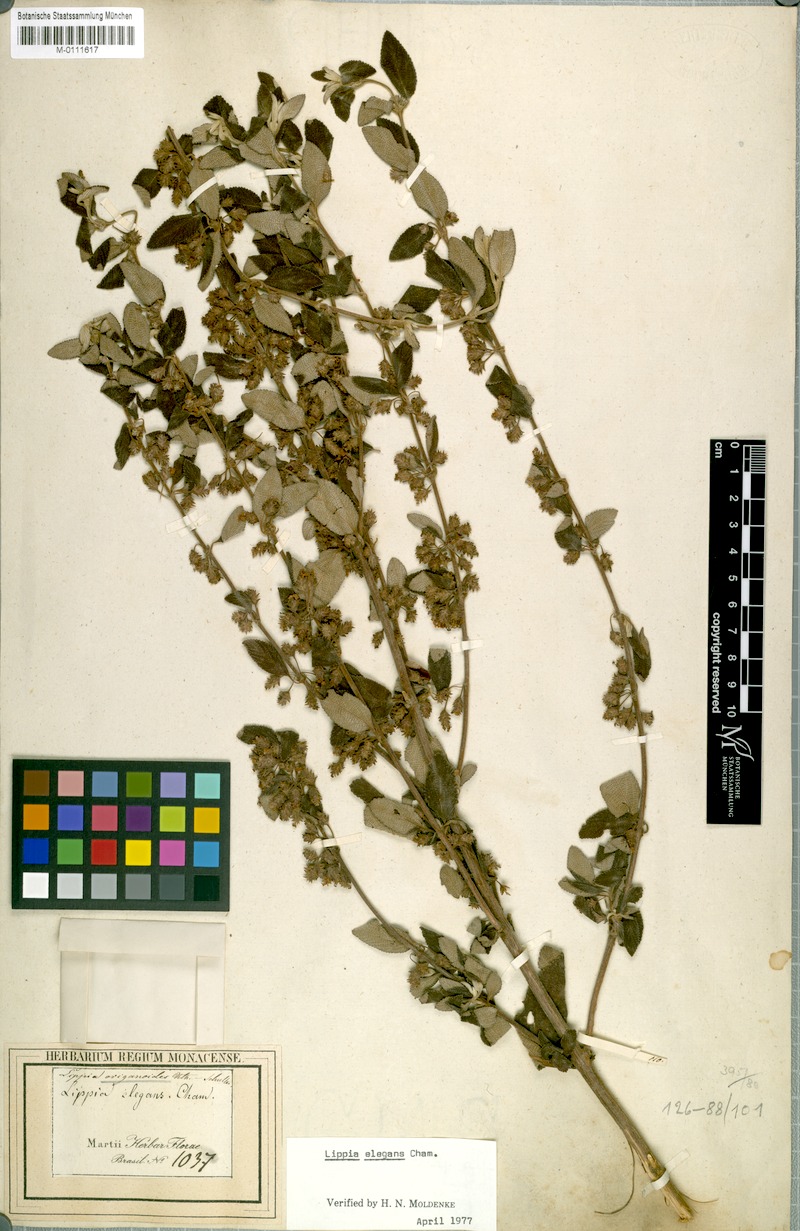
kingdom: Plantae
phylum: Tracheophyta
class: Magnoliopsida
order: Lamiales
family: Verbenaceae
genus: Lippia
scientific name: Lippia origanoides
